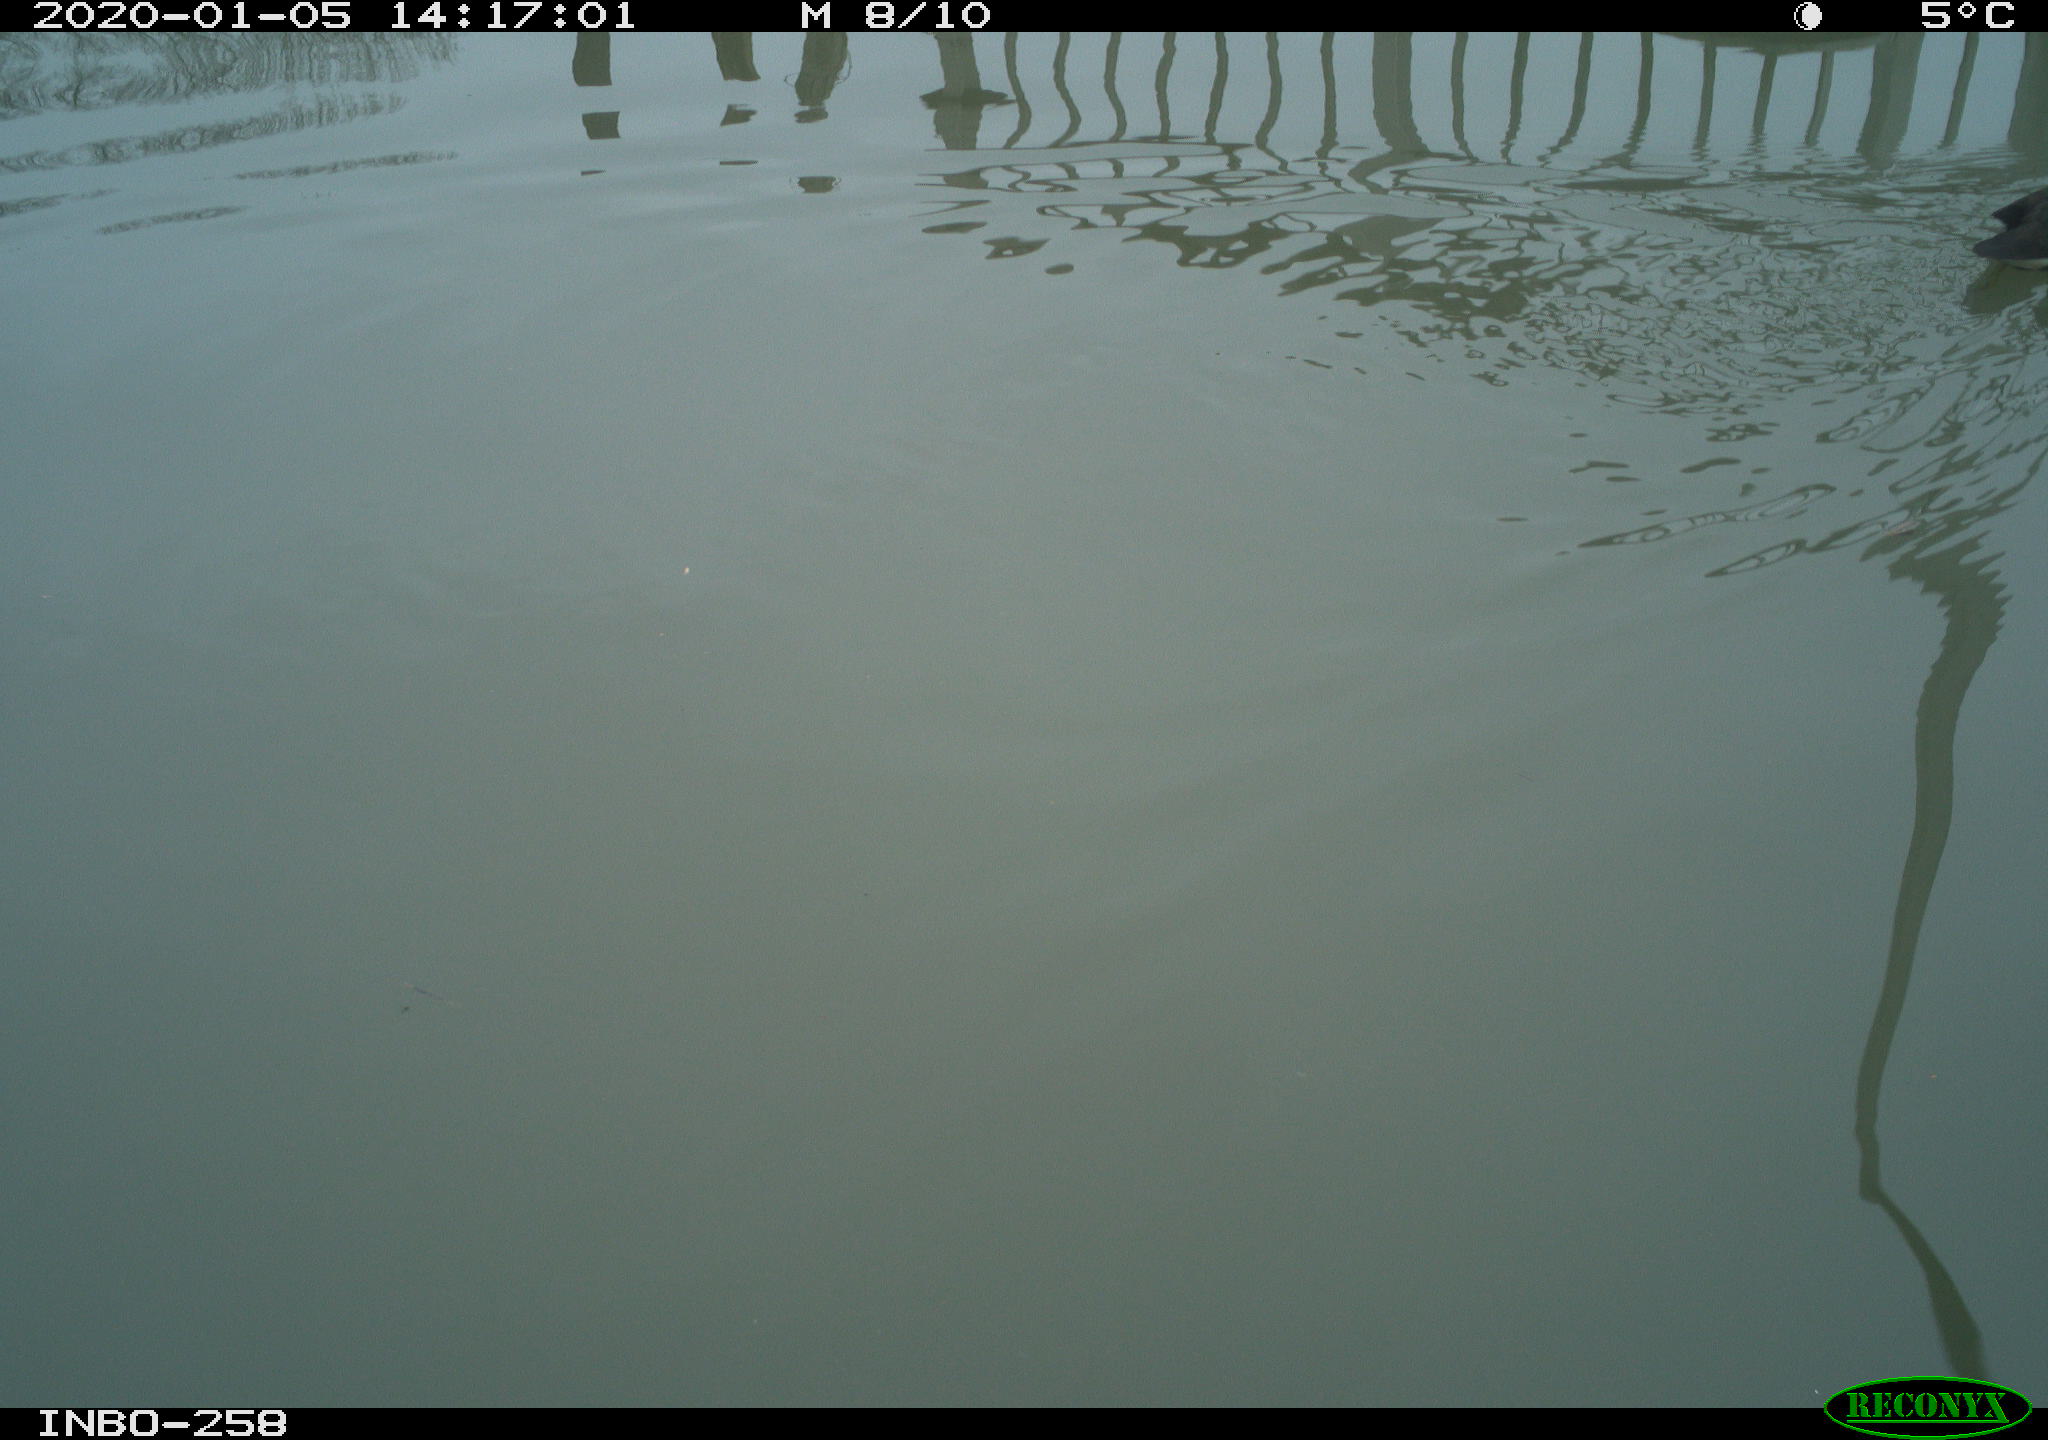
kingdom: Animalia
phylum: Chordata
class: Aves
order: Gruiformes
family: Rallidae
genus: Gallinula
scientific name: Gallinula chloropus
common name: Common moorhen
